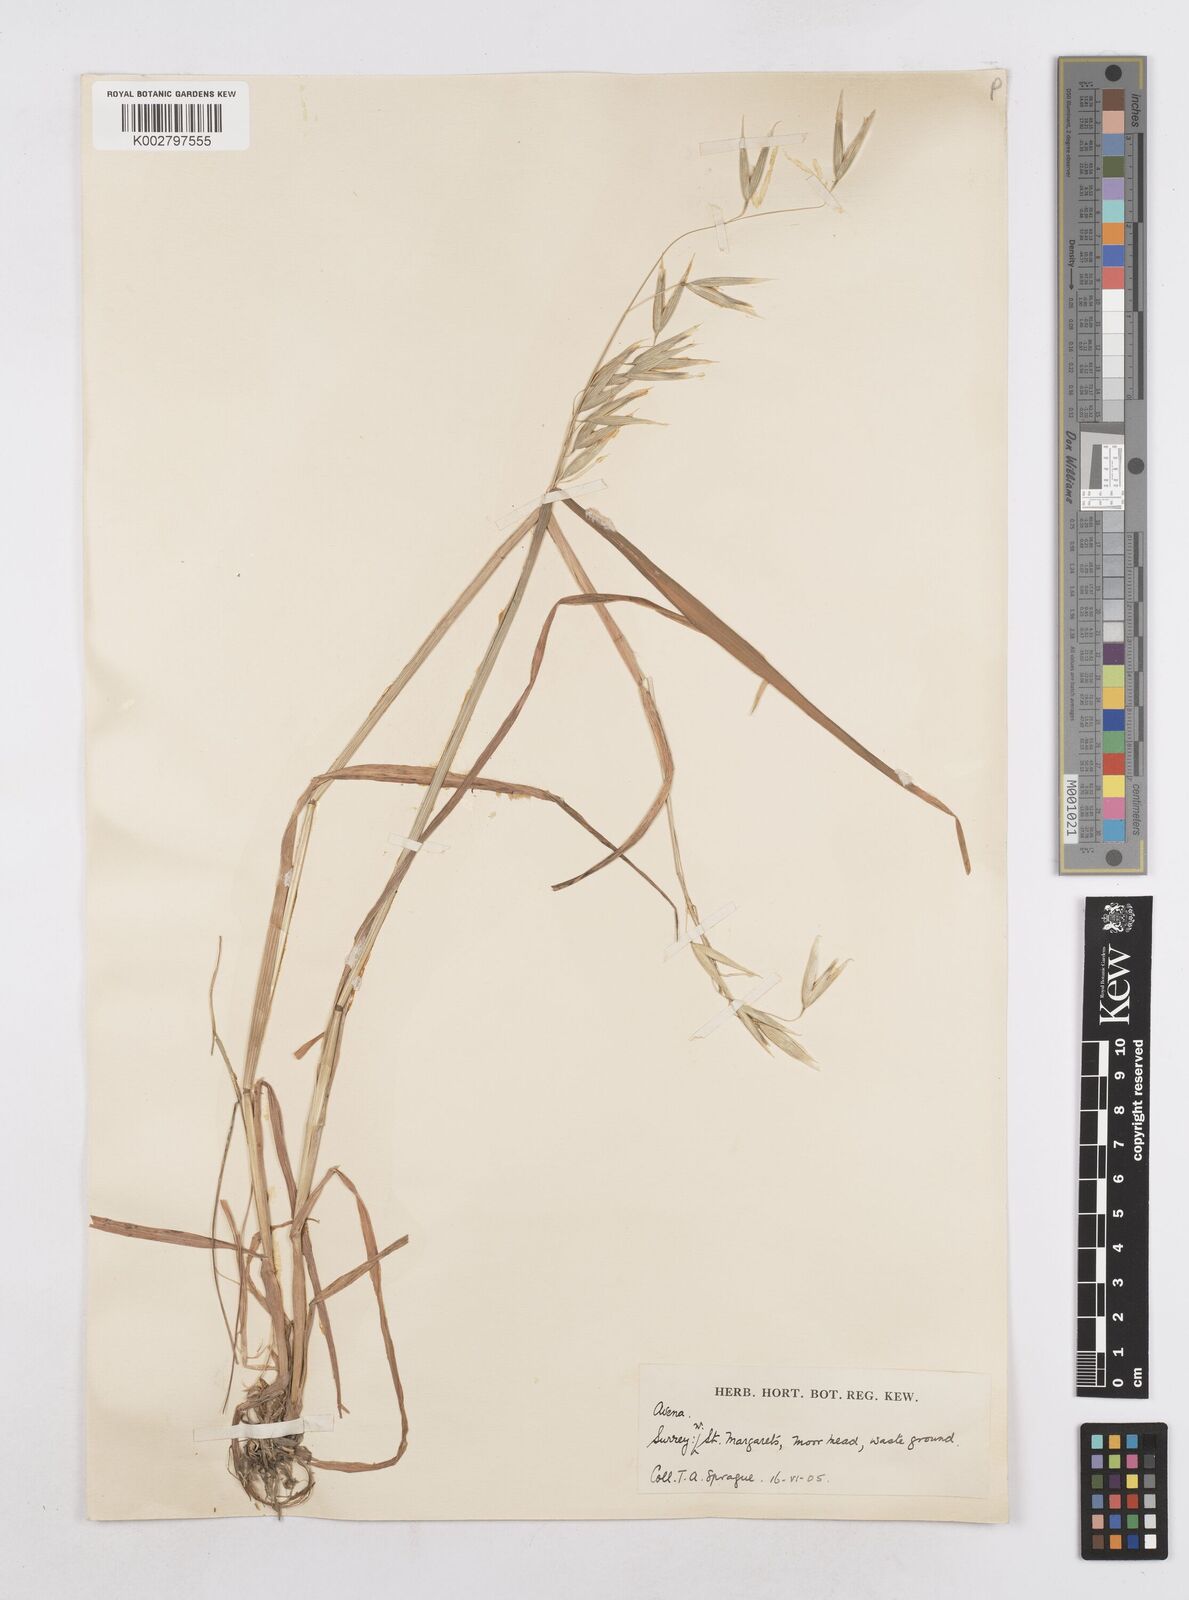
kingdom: Plantae
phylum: Tracheophyta
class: Liliopsida
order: Poales
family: Poaceae
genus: Avena
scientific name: Avena
